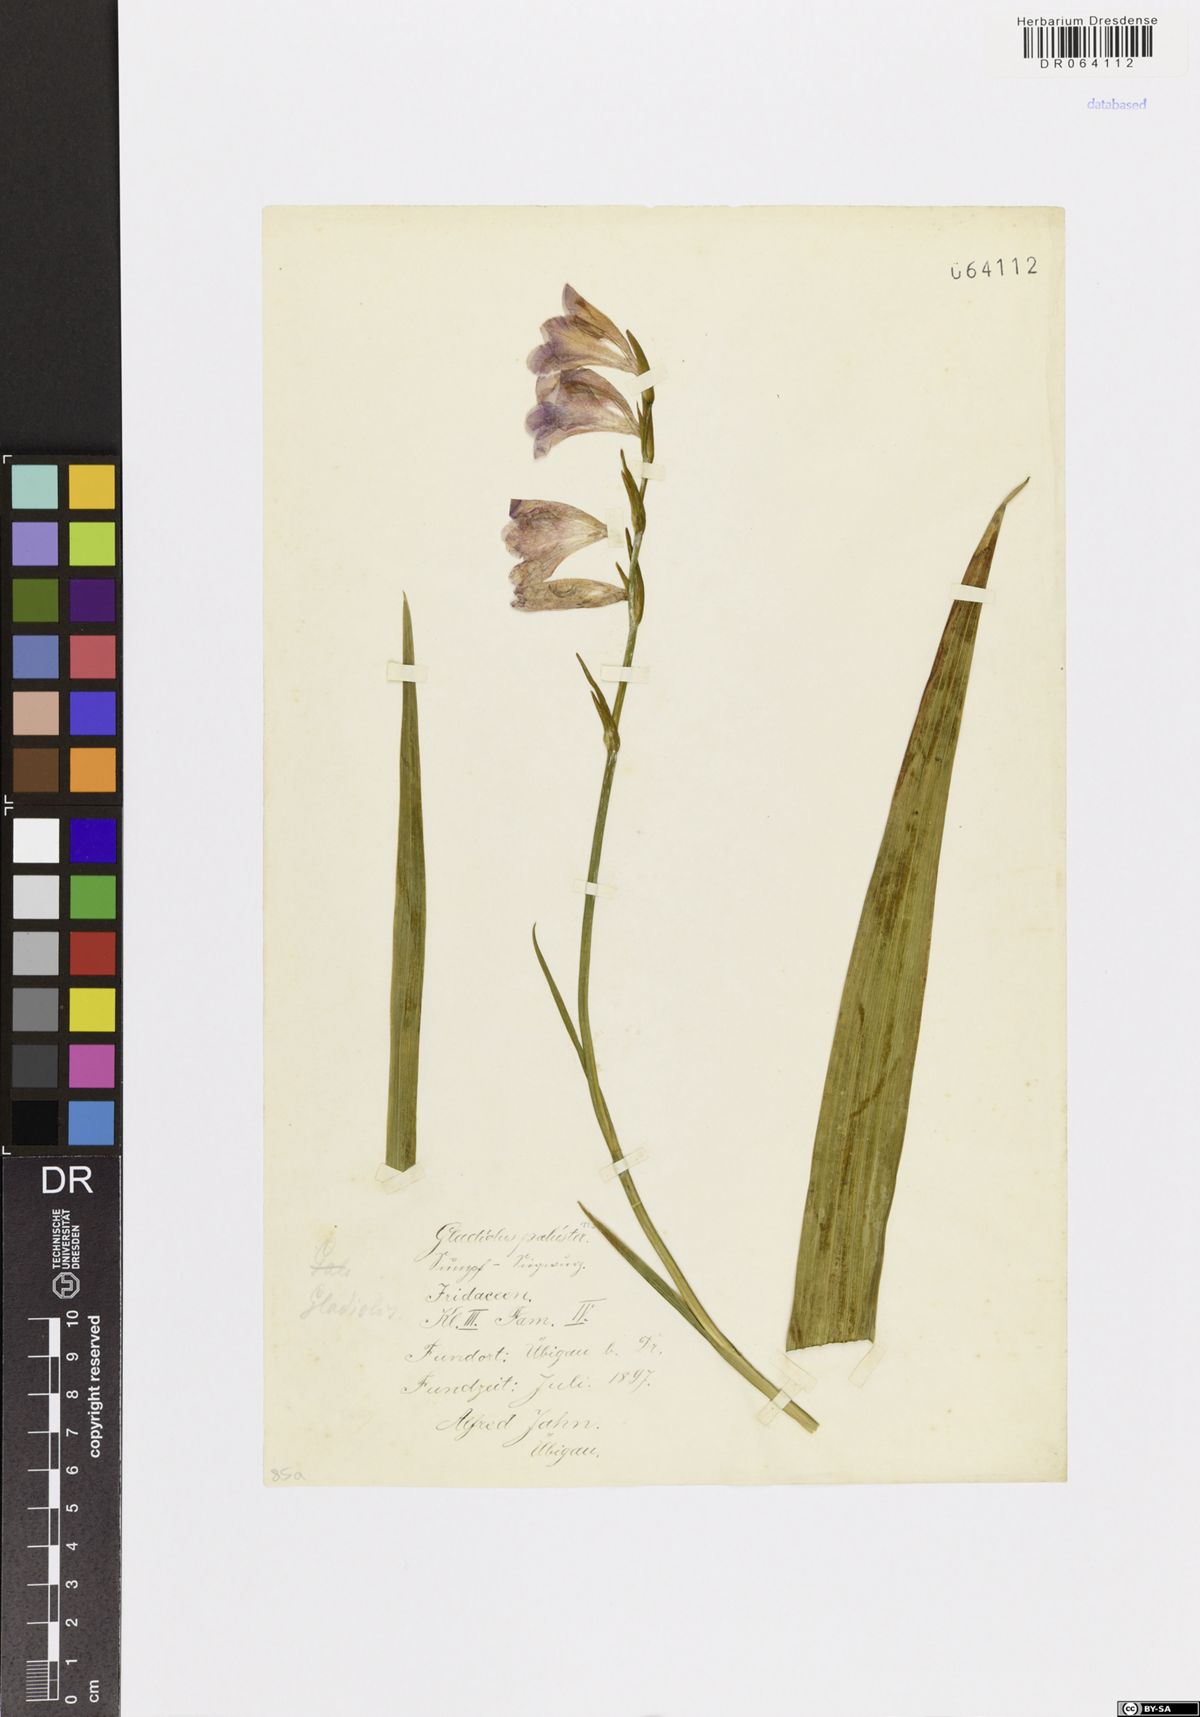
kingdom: Plantae
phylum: Tracheophyta
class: Liliopsida
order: Asparagales
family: Iridaceae
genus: Gladiolus
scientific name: Gladiolus palustris
